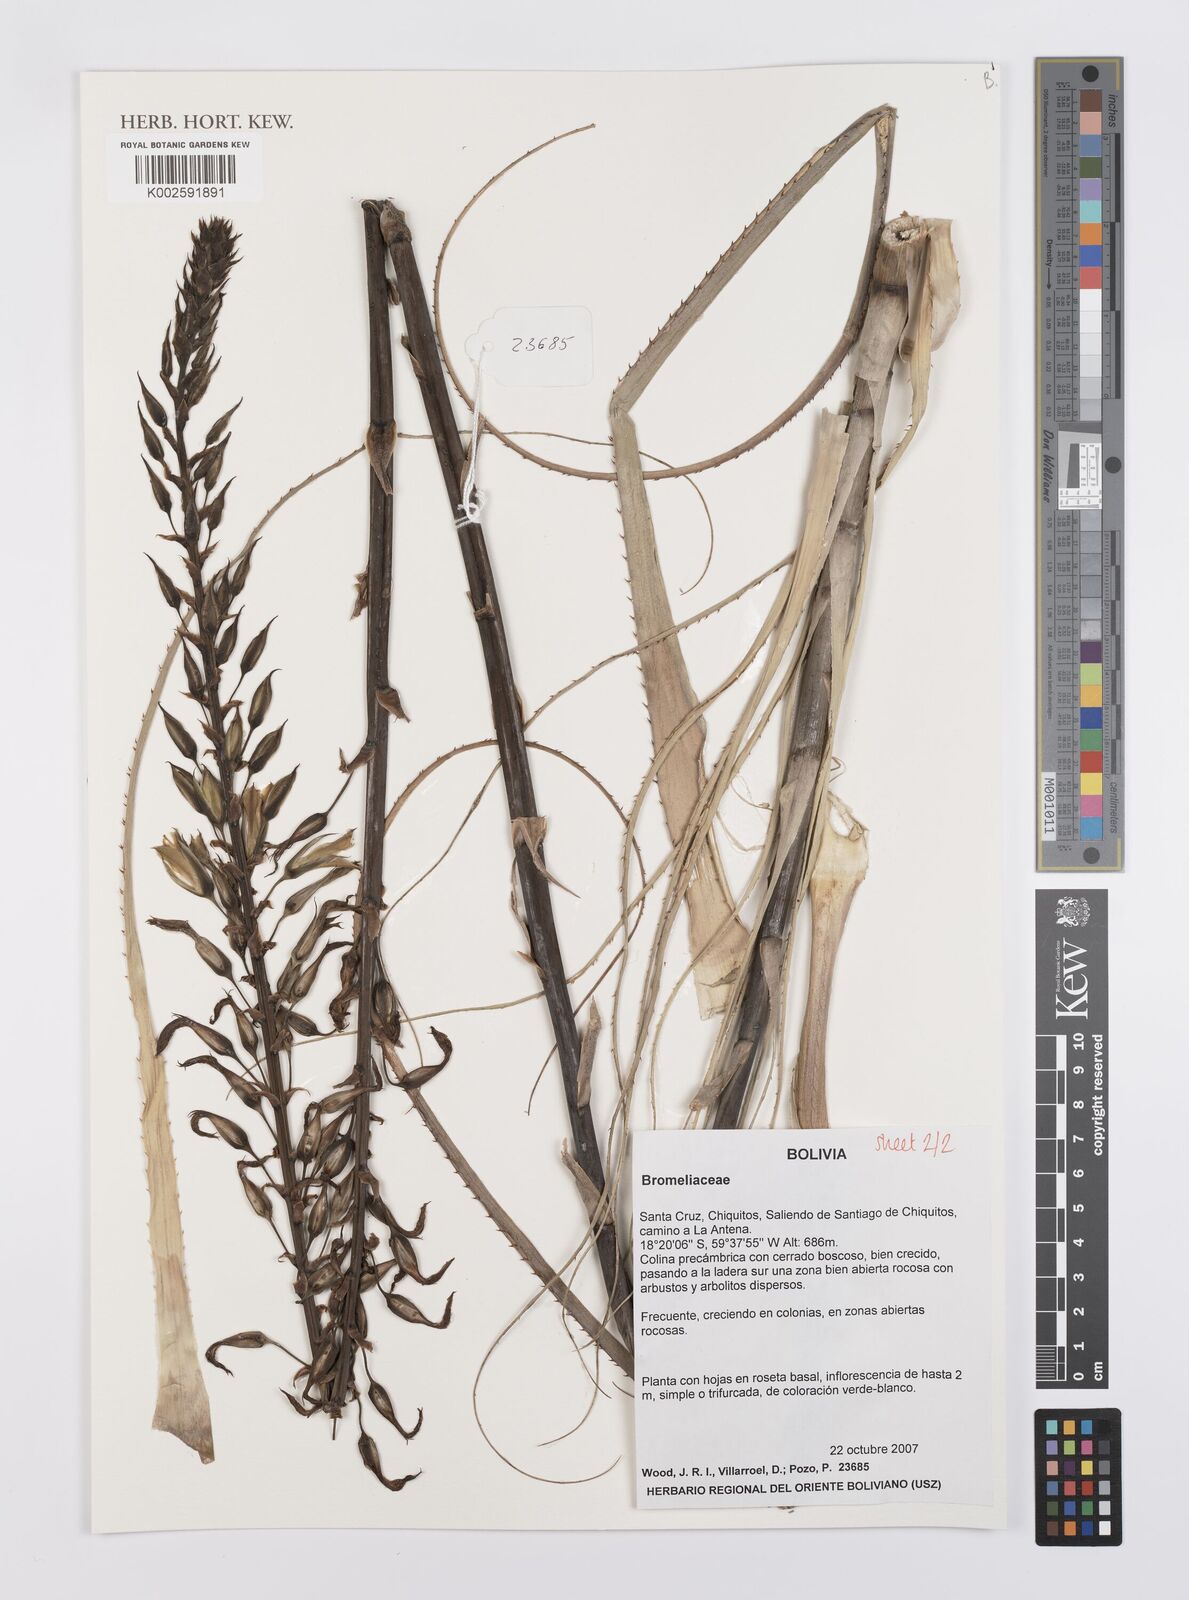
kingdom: Plantae
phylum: Tracheophyta
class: Liliopsida
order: Poales
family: Bromeliaceae
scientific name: Bromeliaceae
